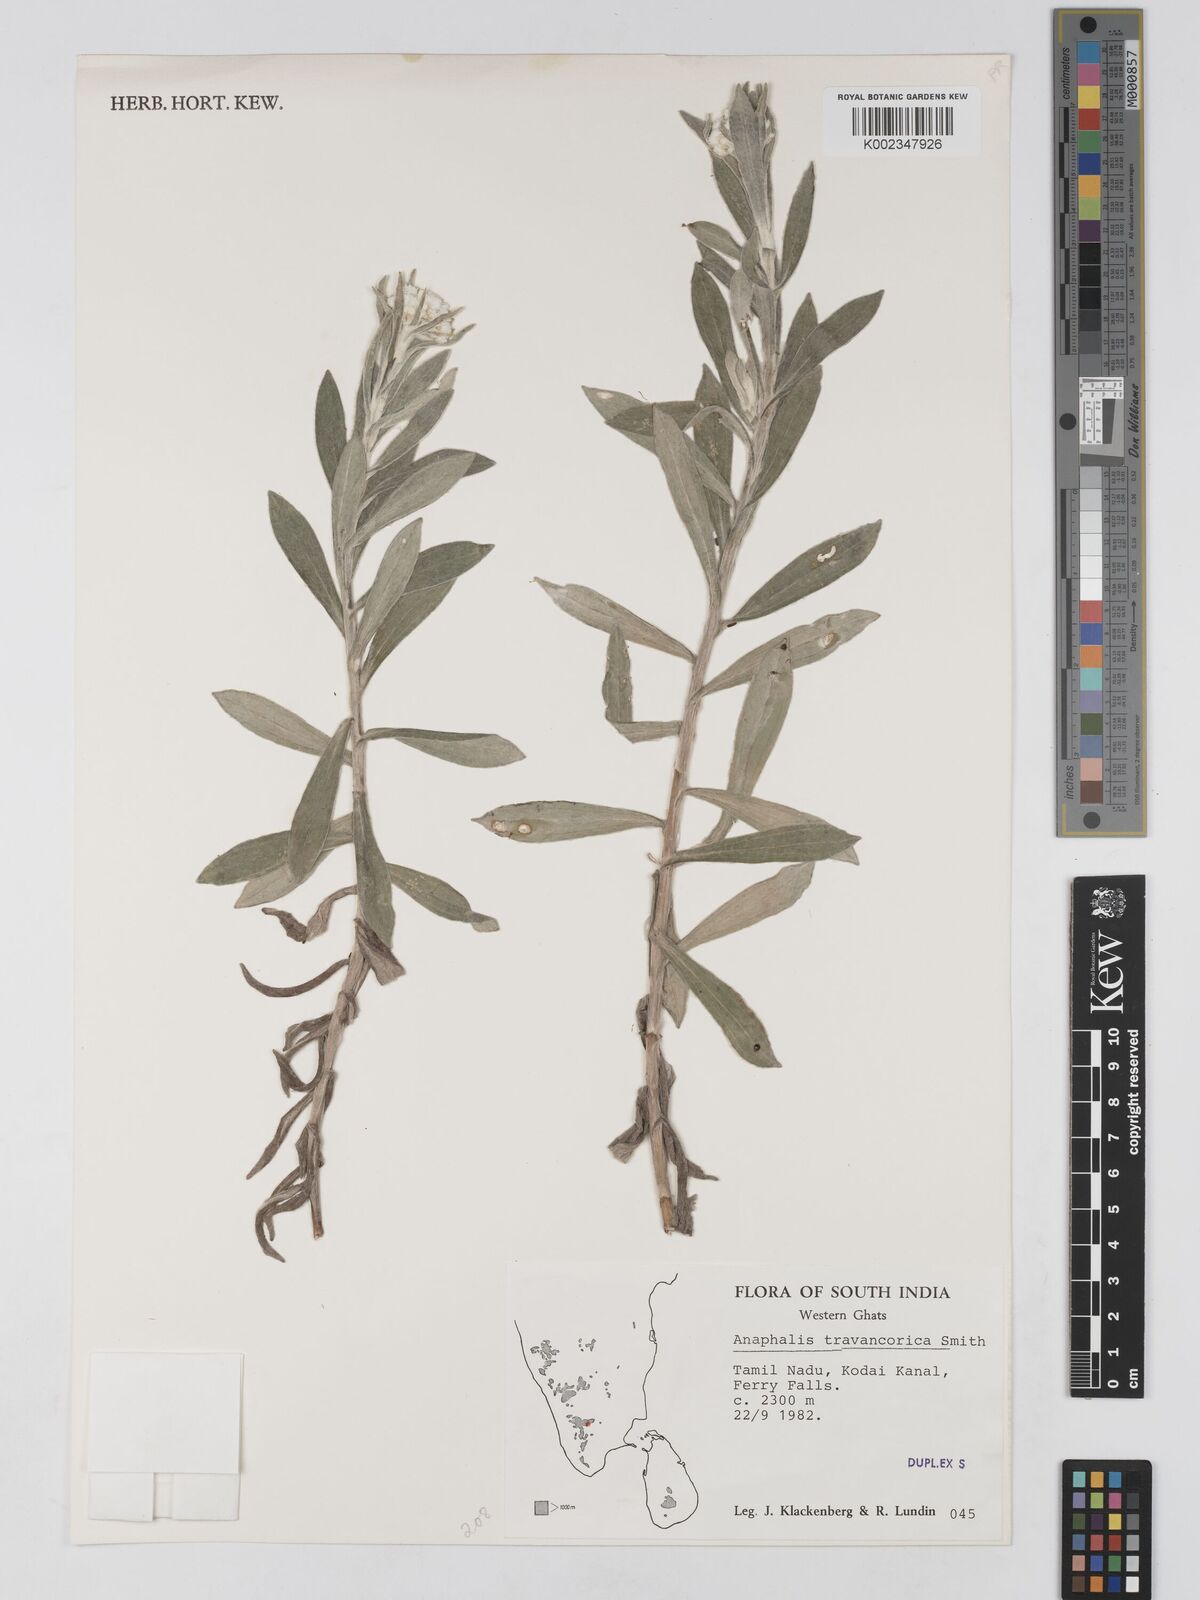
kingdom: Plantae
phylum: Tracheophyta
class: Magnoliopsida
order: Asterales
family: Asteraceae
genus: Anaphalis
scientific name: Anaphalis travancorica
